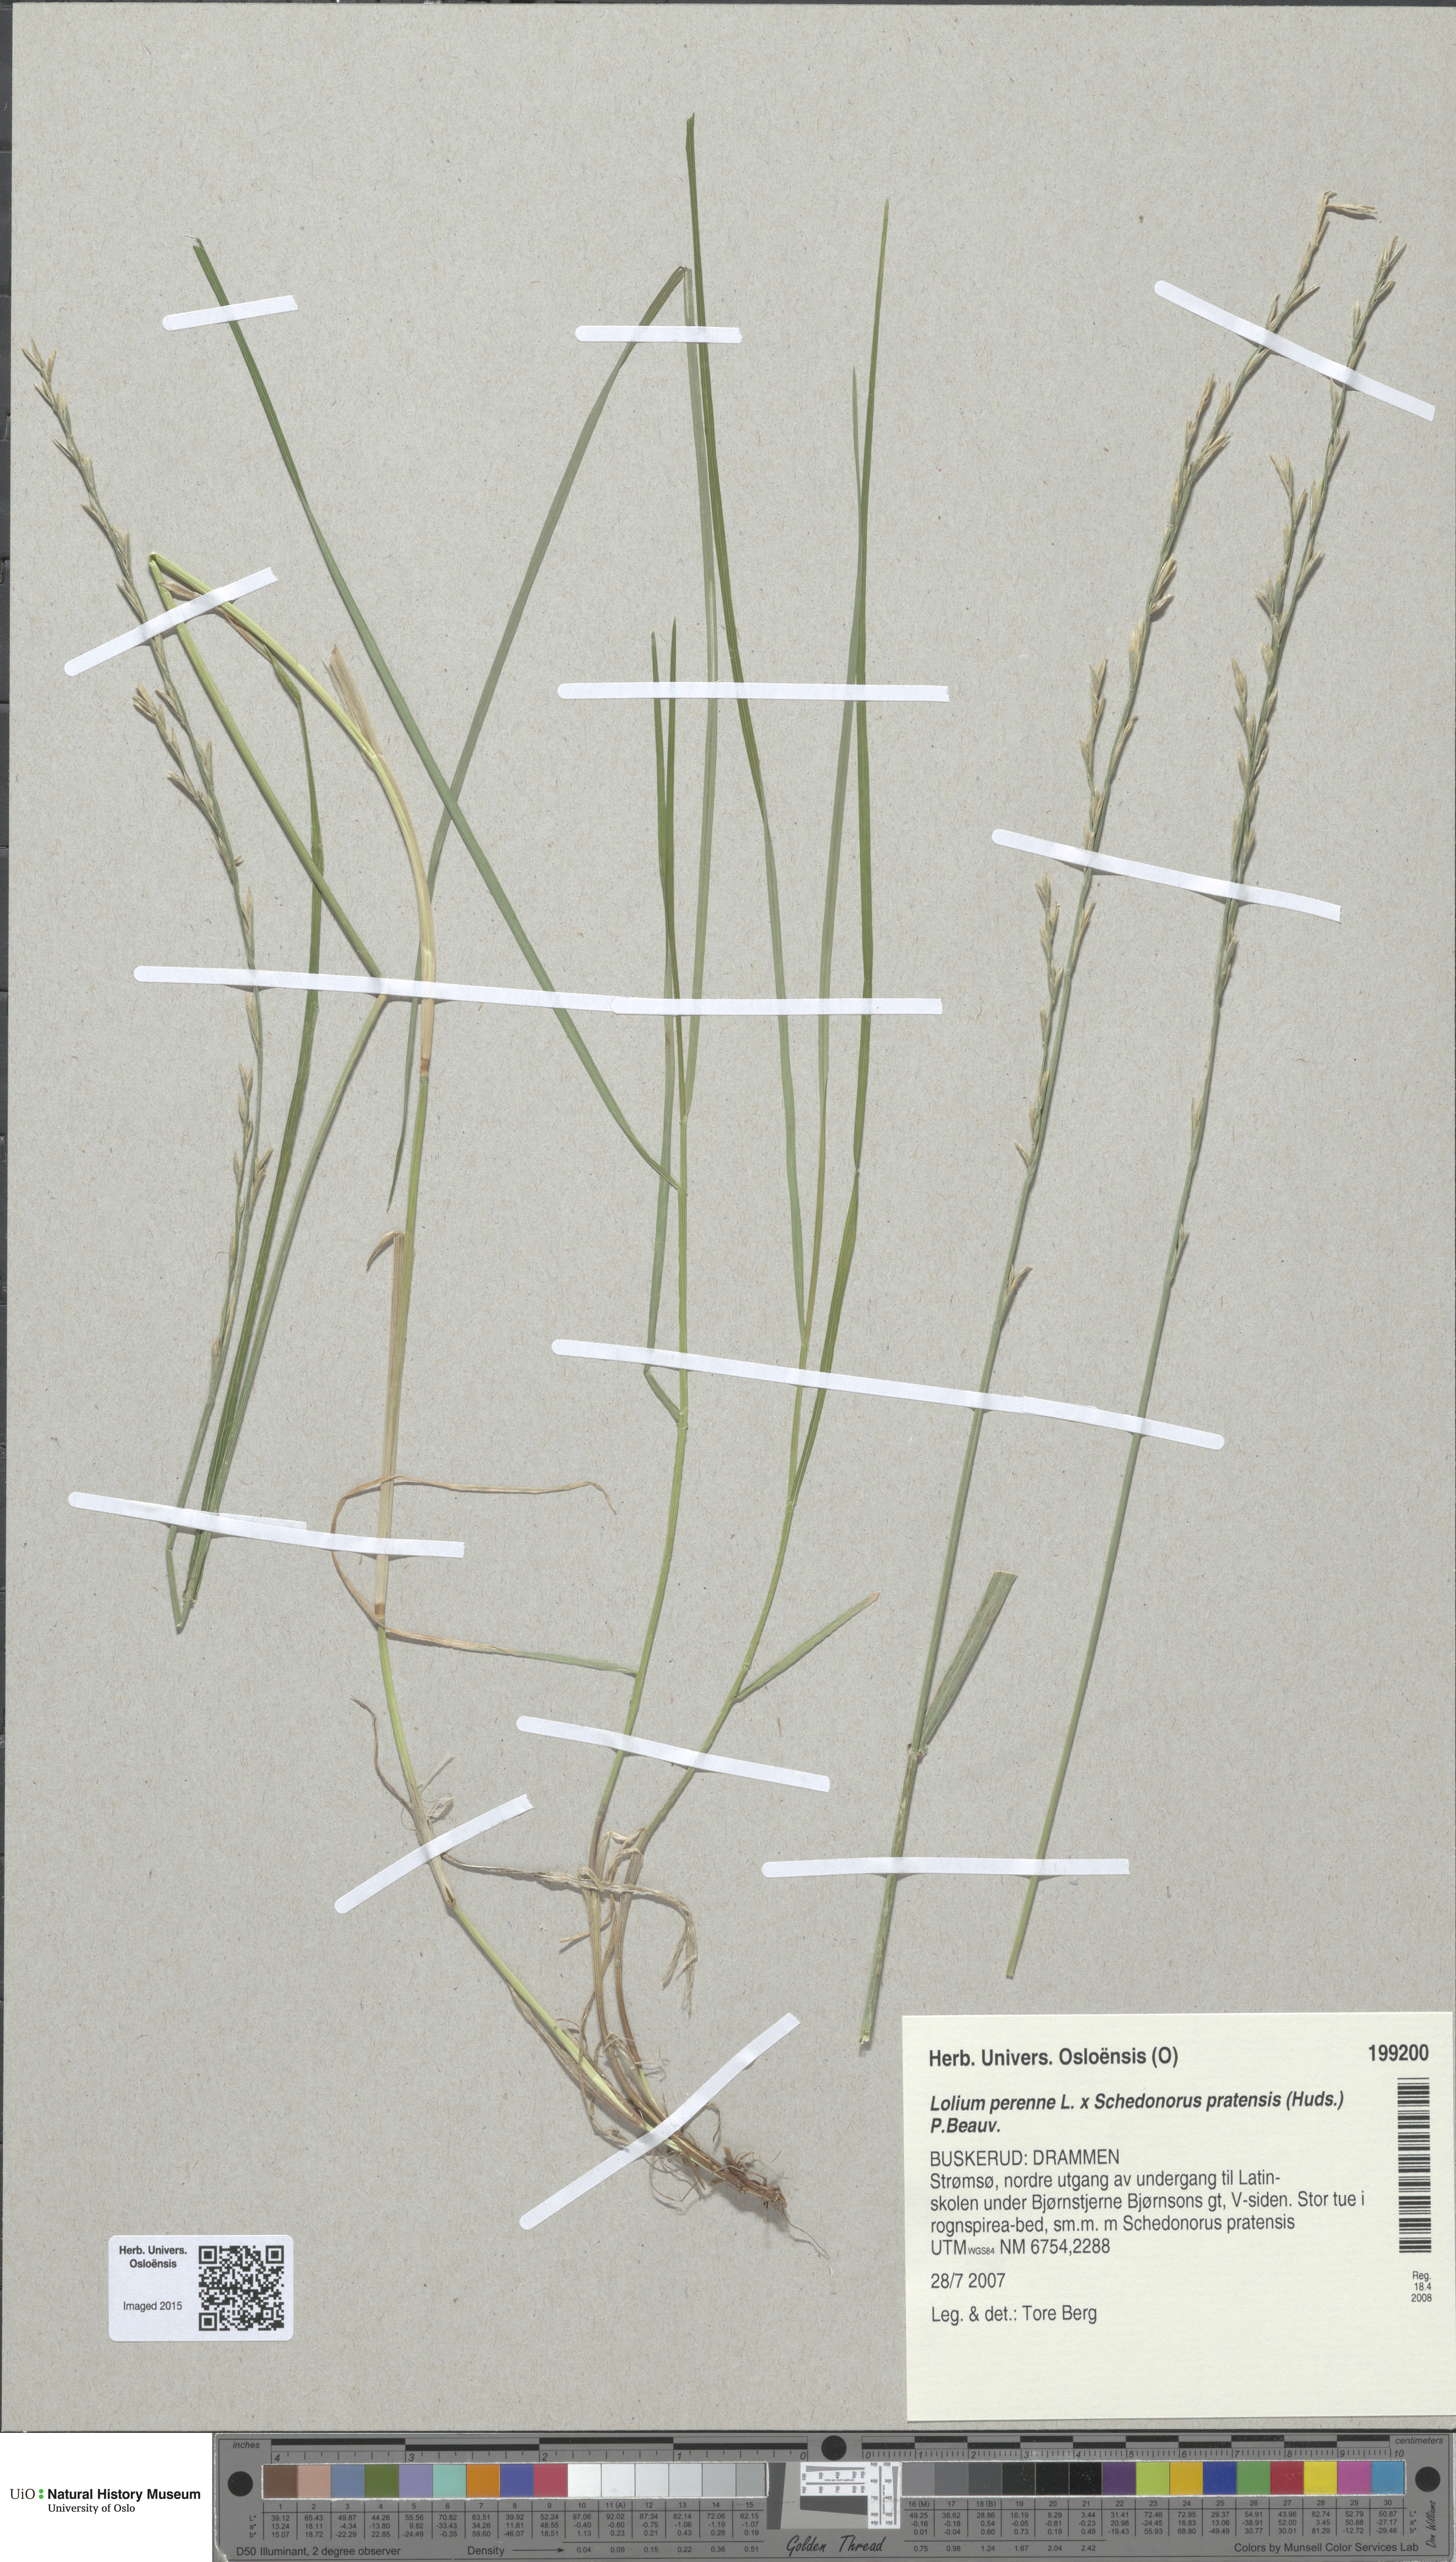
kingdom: Plantae
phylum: Tracheophyta
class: Liliopsida
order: Poales
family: Poaceae
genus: Lolium
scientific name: Lolium
